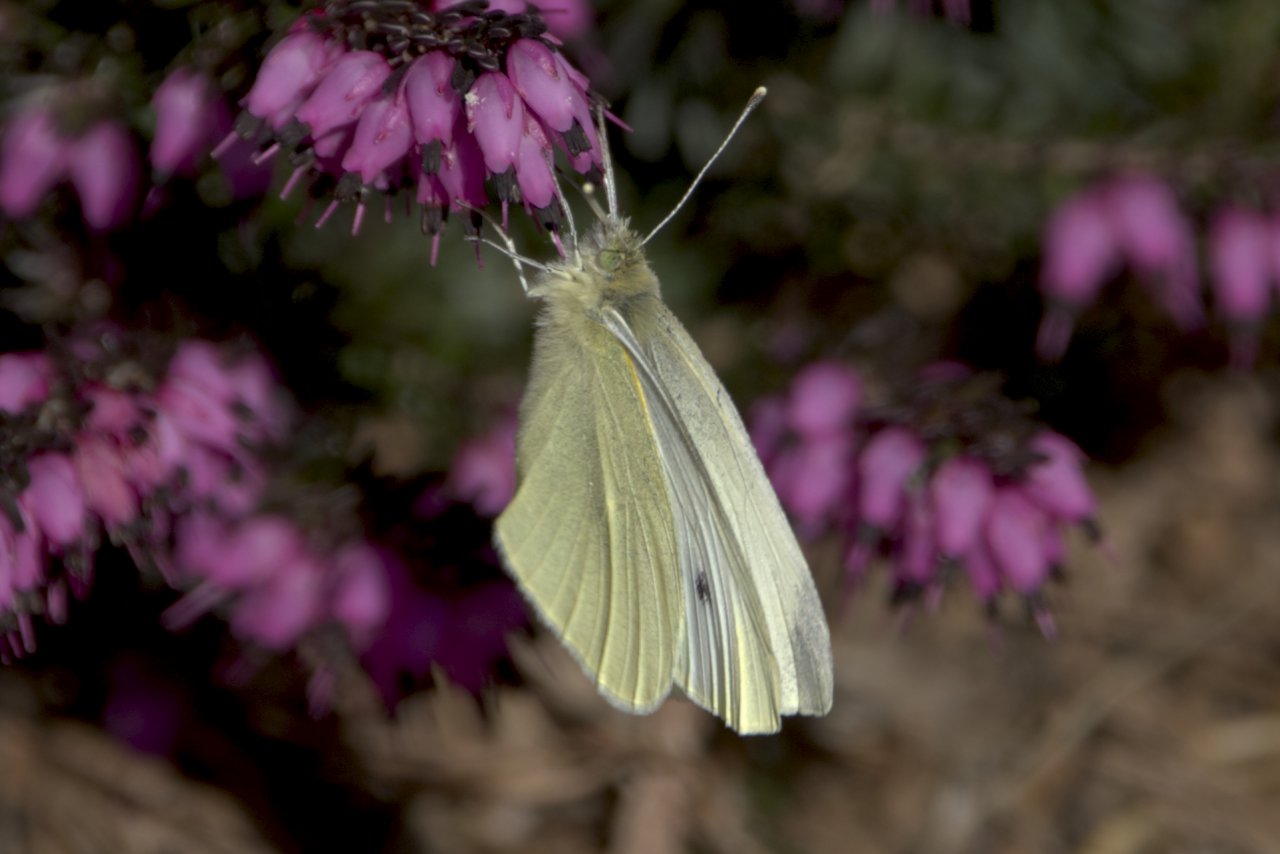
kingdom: Animalia
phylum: Arthropoda
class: Insecta
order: Lepidoptera
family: Pieridae
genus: Pieris
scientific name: Pieris rapae
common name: Cabbage White
